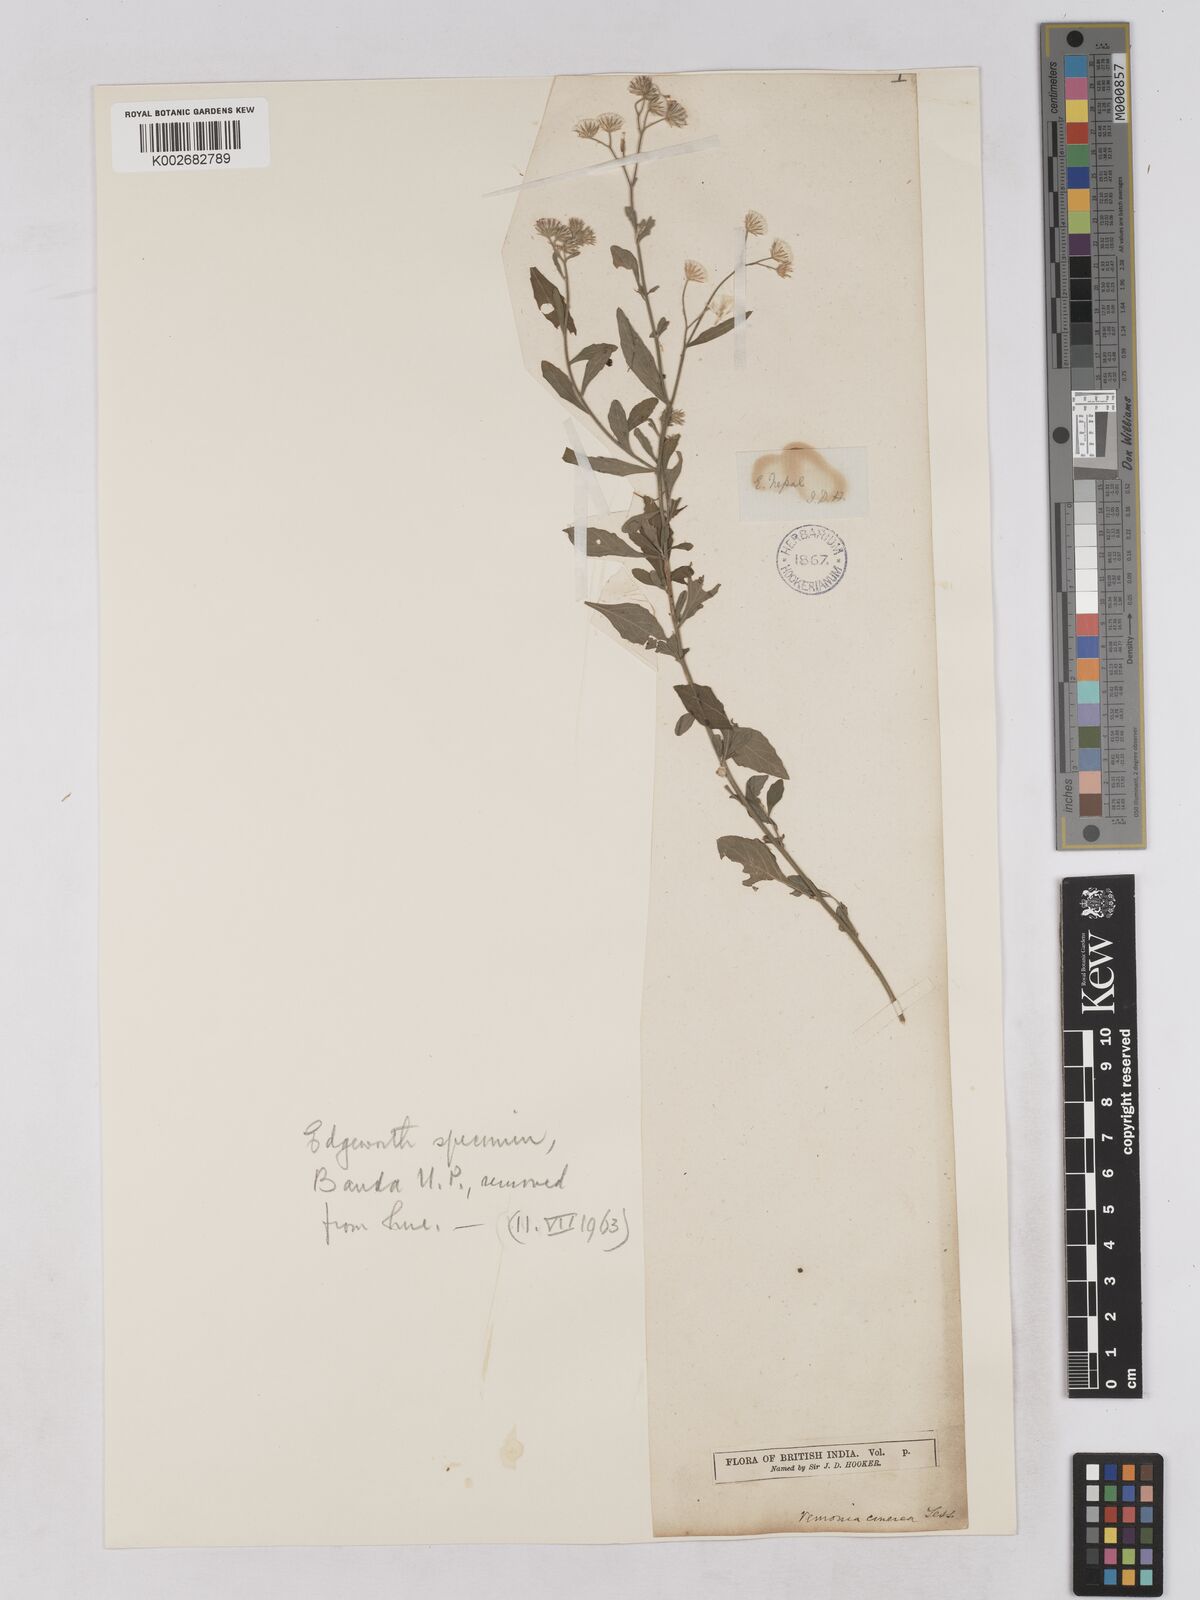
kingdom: Plantae
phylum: Tracheophyta
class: Magnoliopsida
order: Asterales
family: Asteraceae
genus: Cyanthillium
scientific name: Cyanthillium cinereum
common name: Little ironweed
